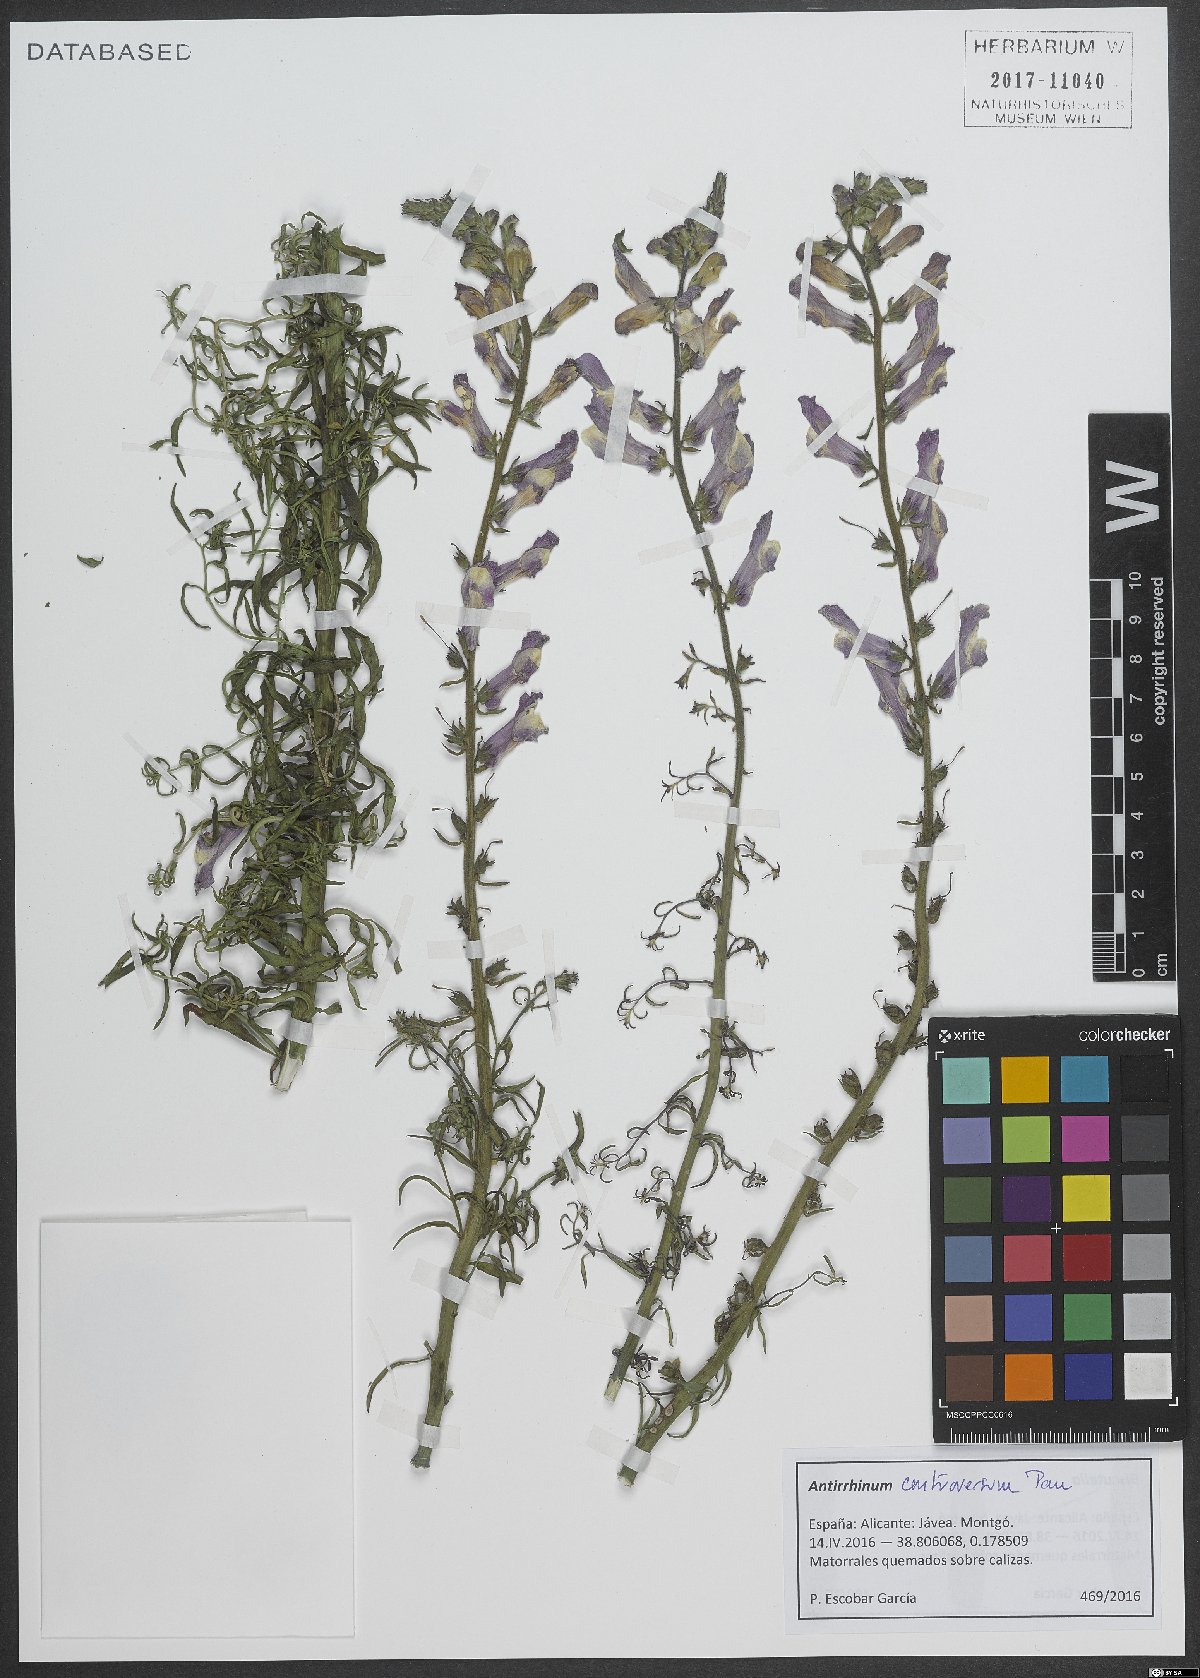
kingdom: Plantae
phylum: Tracheophyta
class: Magnoliopsida
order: Lamiales
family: Plantaginaceae
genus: Antirrhinum
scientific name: Antirrhinum controversum
